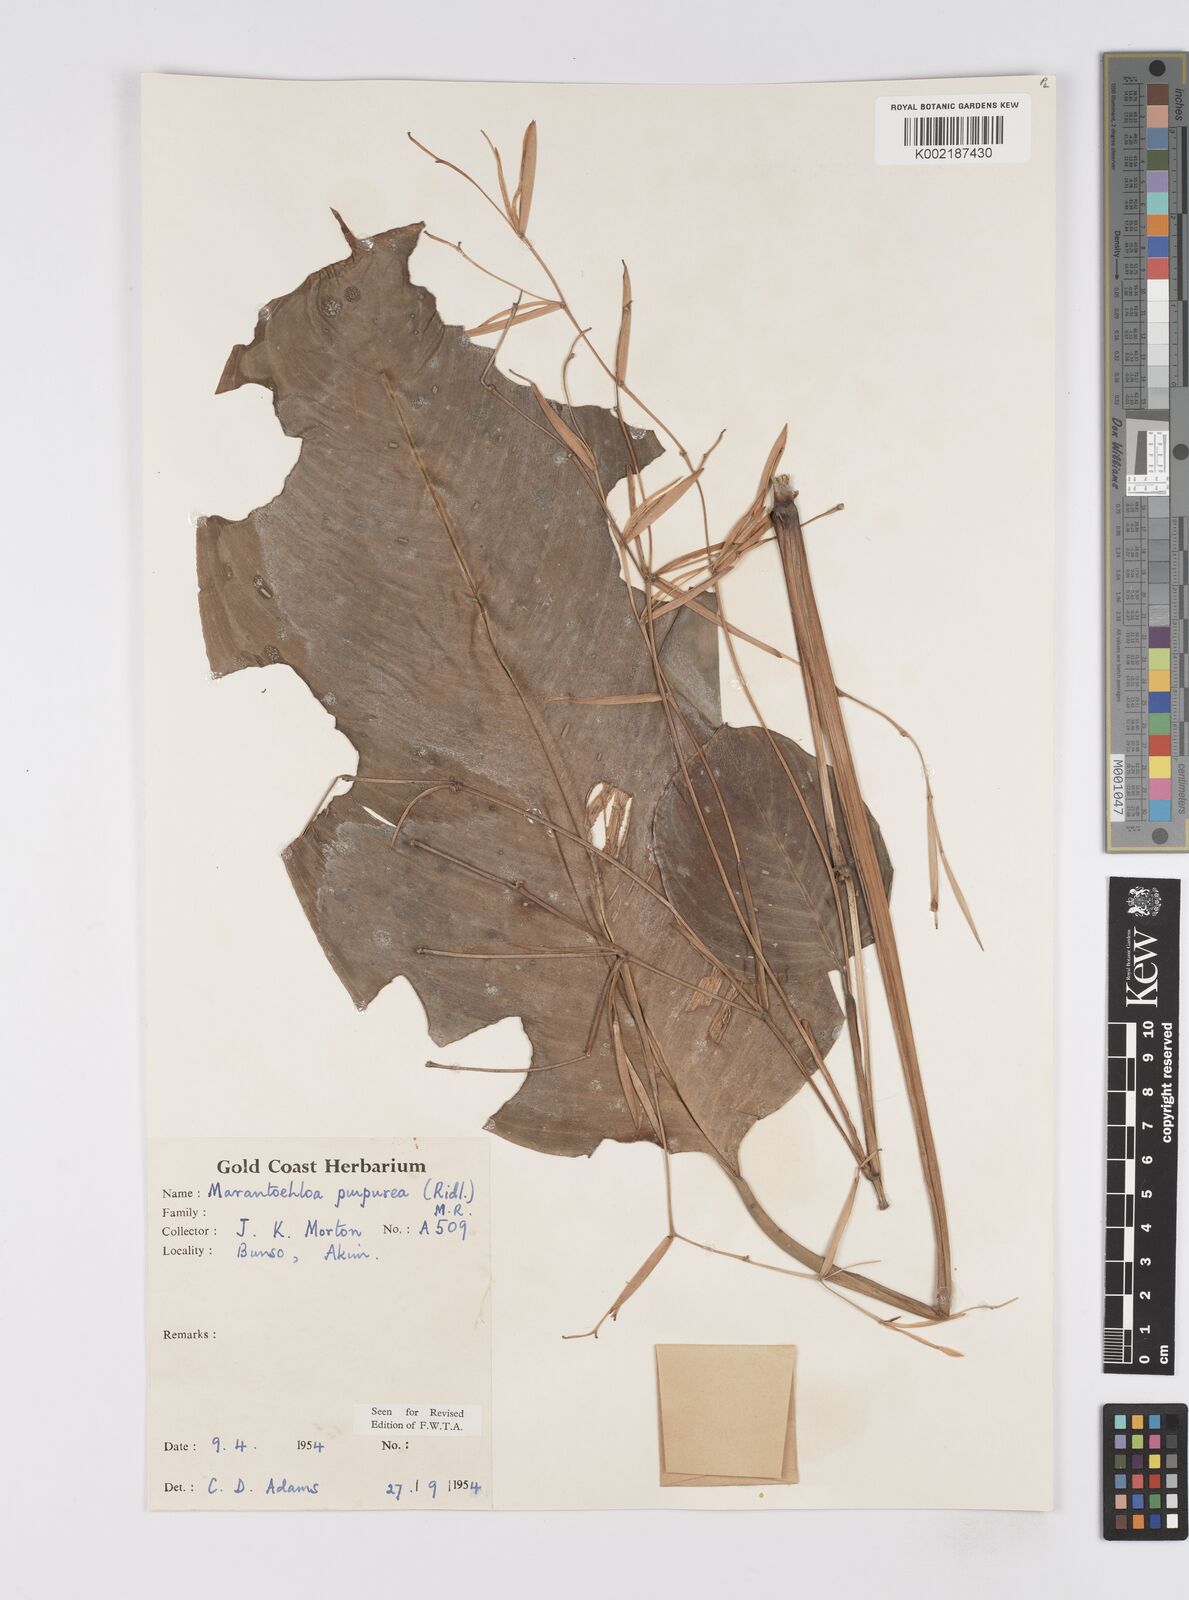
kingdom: Plantae
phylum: Tracheophyta
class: Liliopsida
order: Zingiberales
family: Marantaceae
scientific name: Marantaceae
